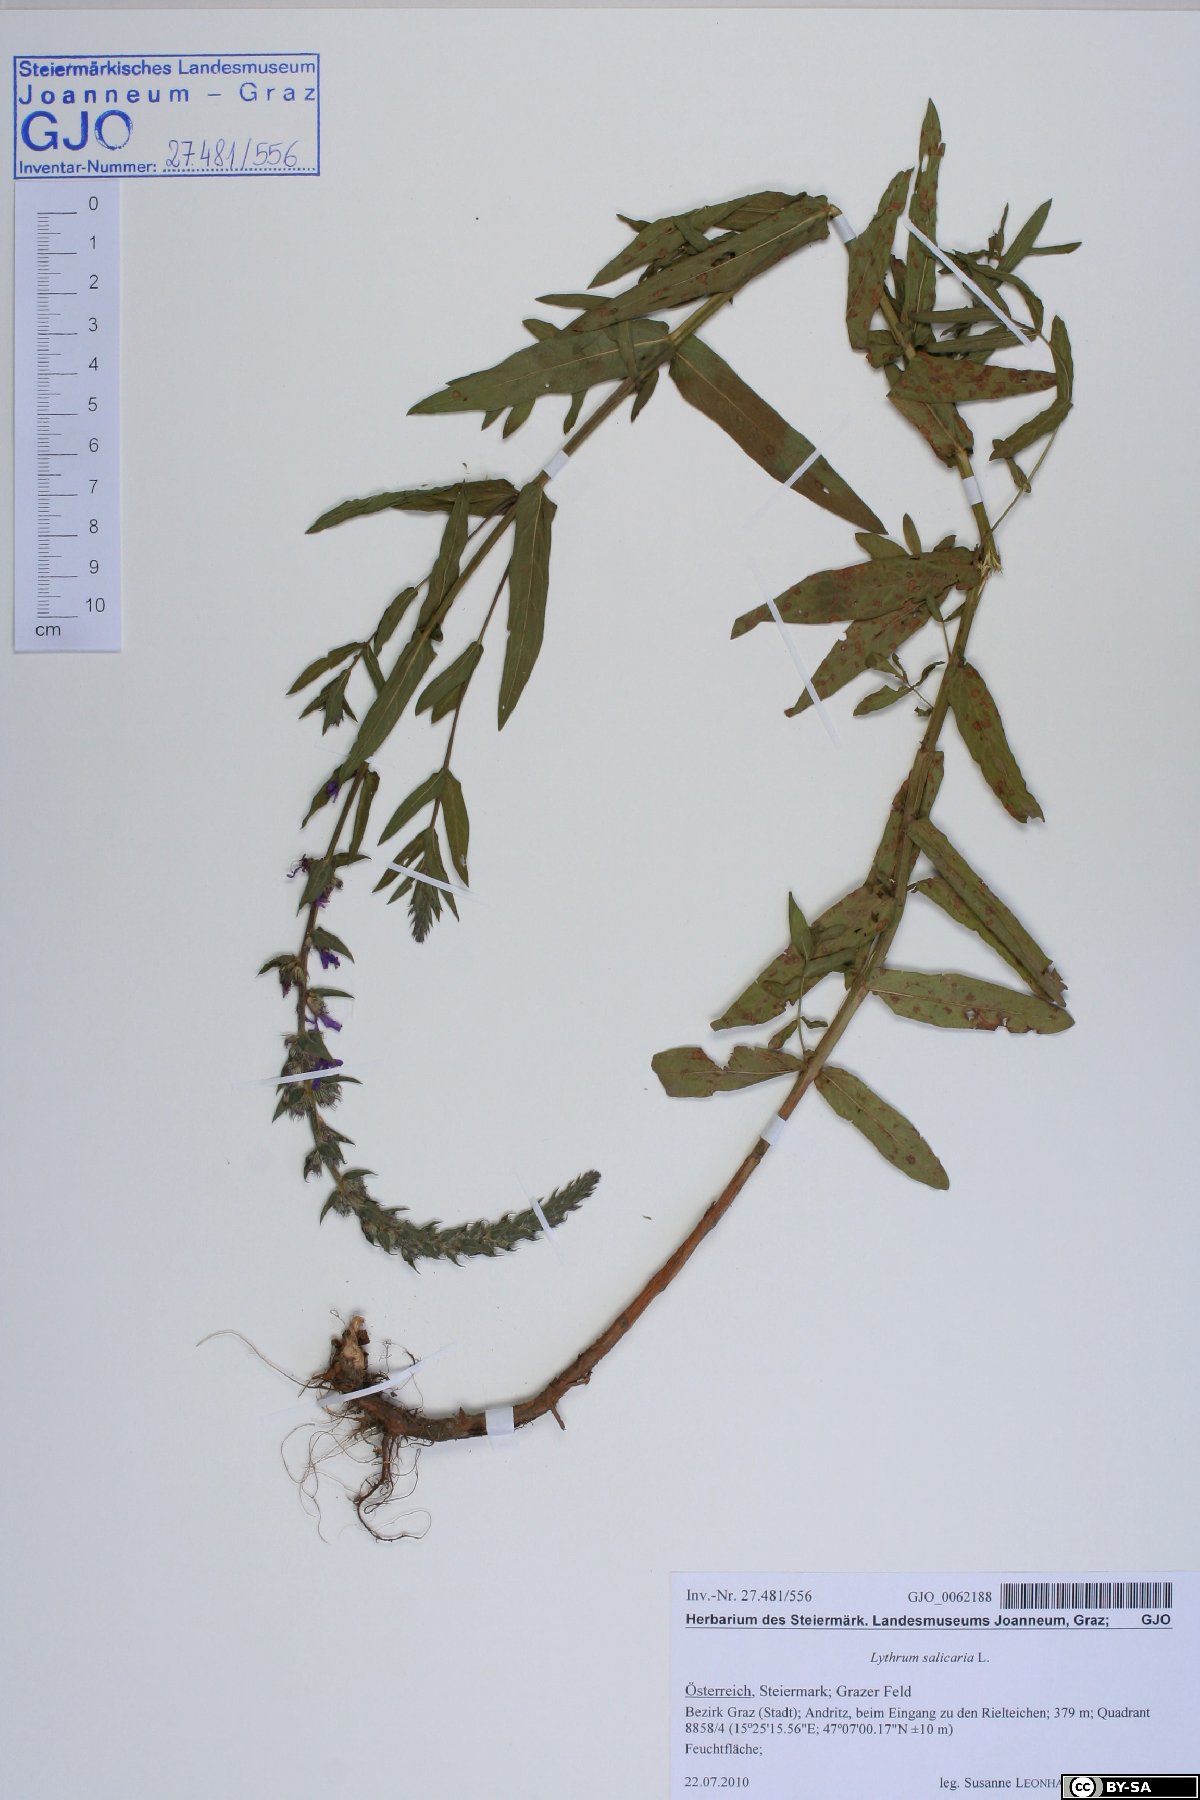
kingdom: Plantae
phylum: Tracheophyta
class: Magnoliopsida
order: Myrtales
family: Lythraceae
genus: Lythrum
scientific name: Lythrum salicaria
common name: Purple loosestrife
